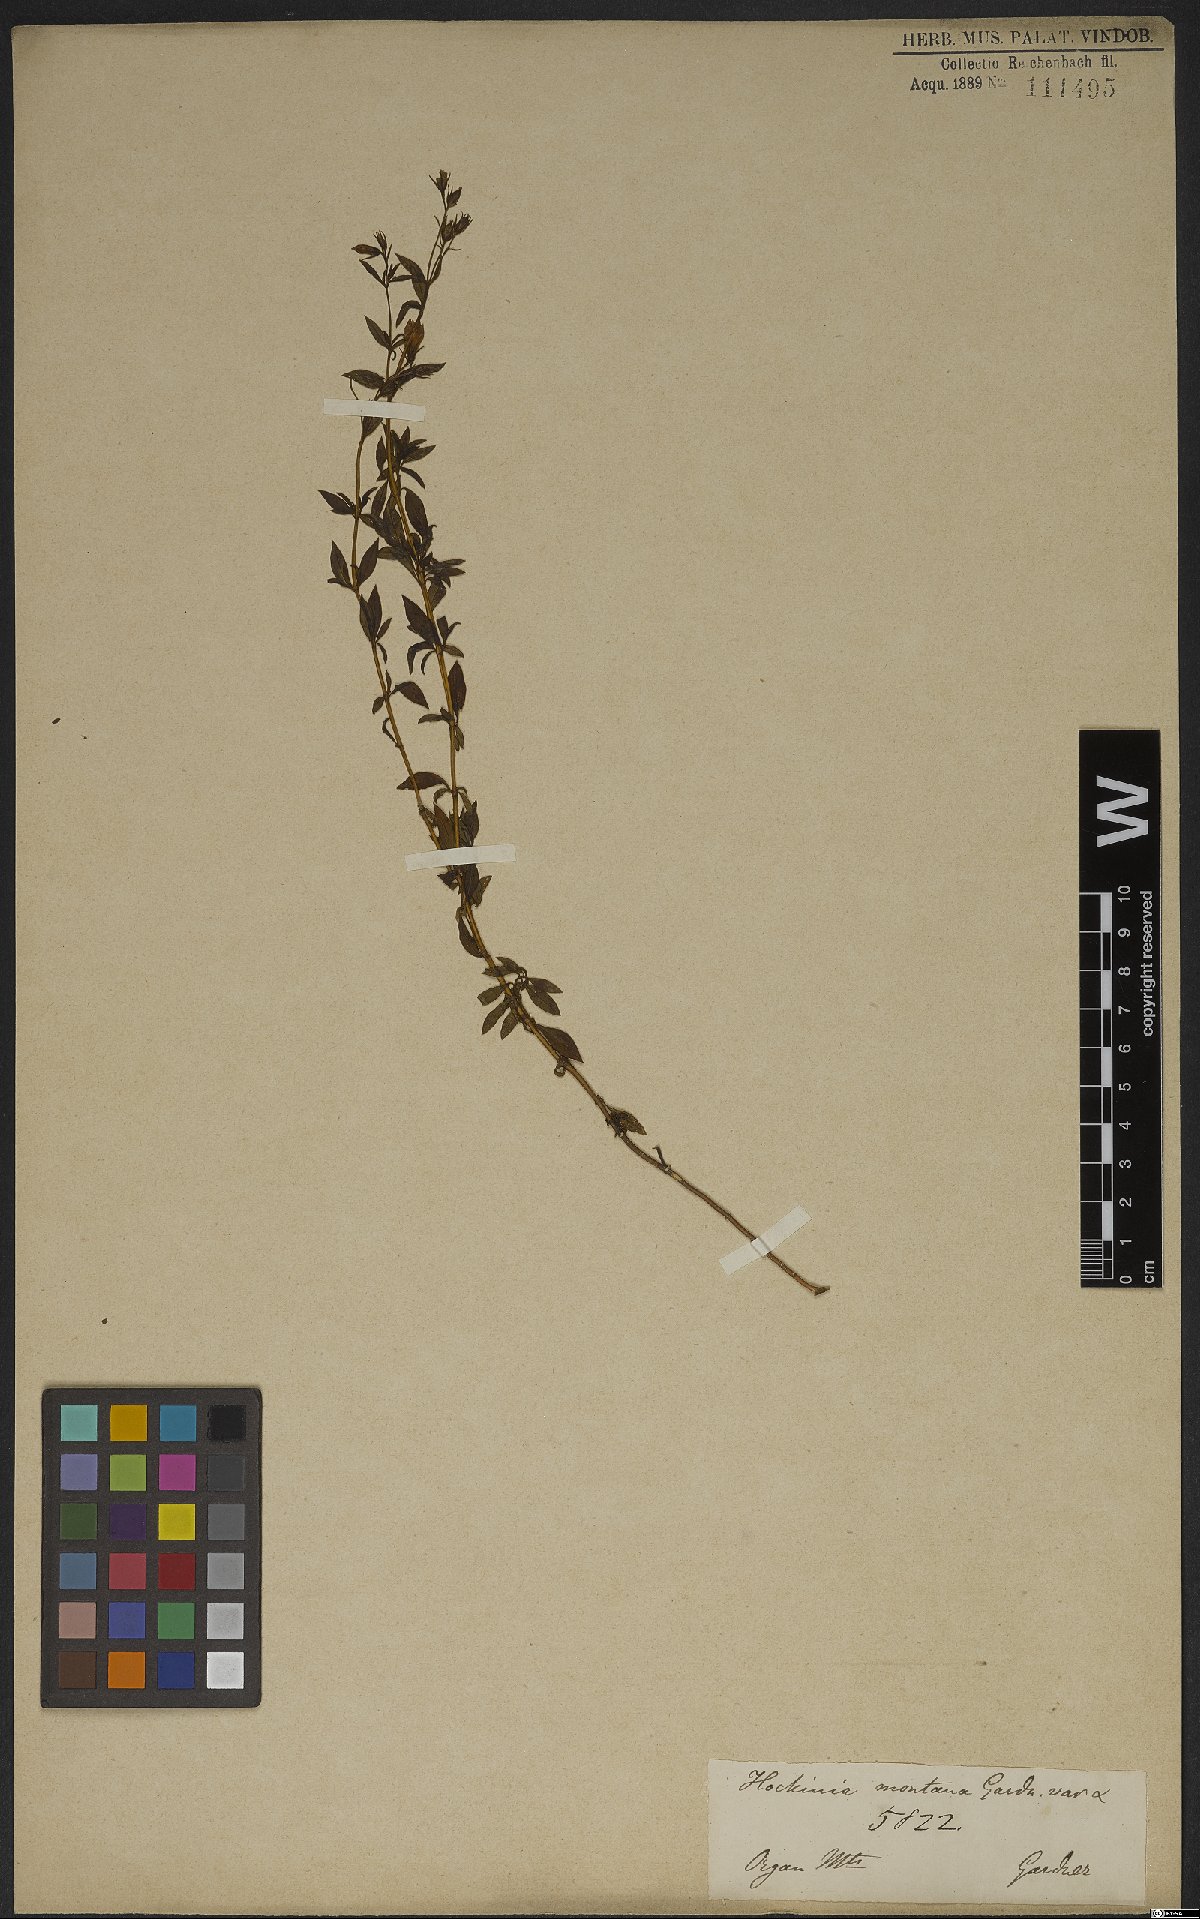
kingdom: Plantae
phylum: Tracheophyta
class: Magnoliopsida
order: Gentianales
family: Gentianaceae
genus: Hockinia
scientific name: Hockinia montana
